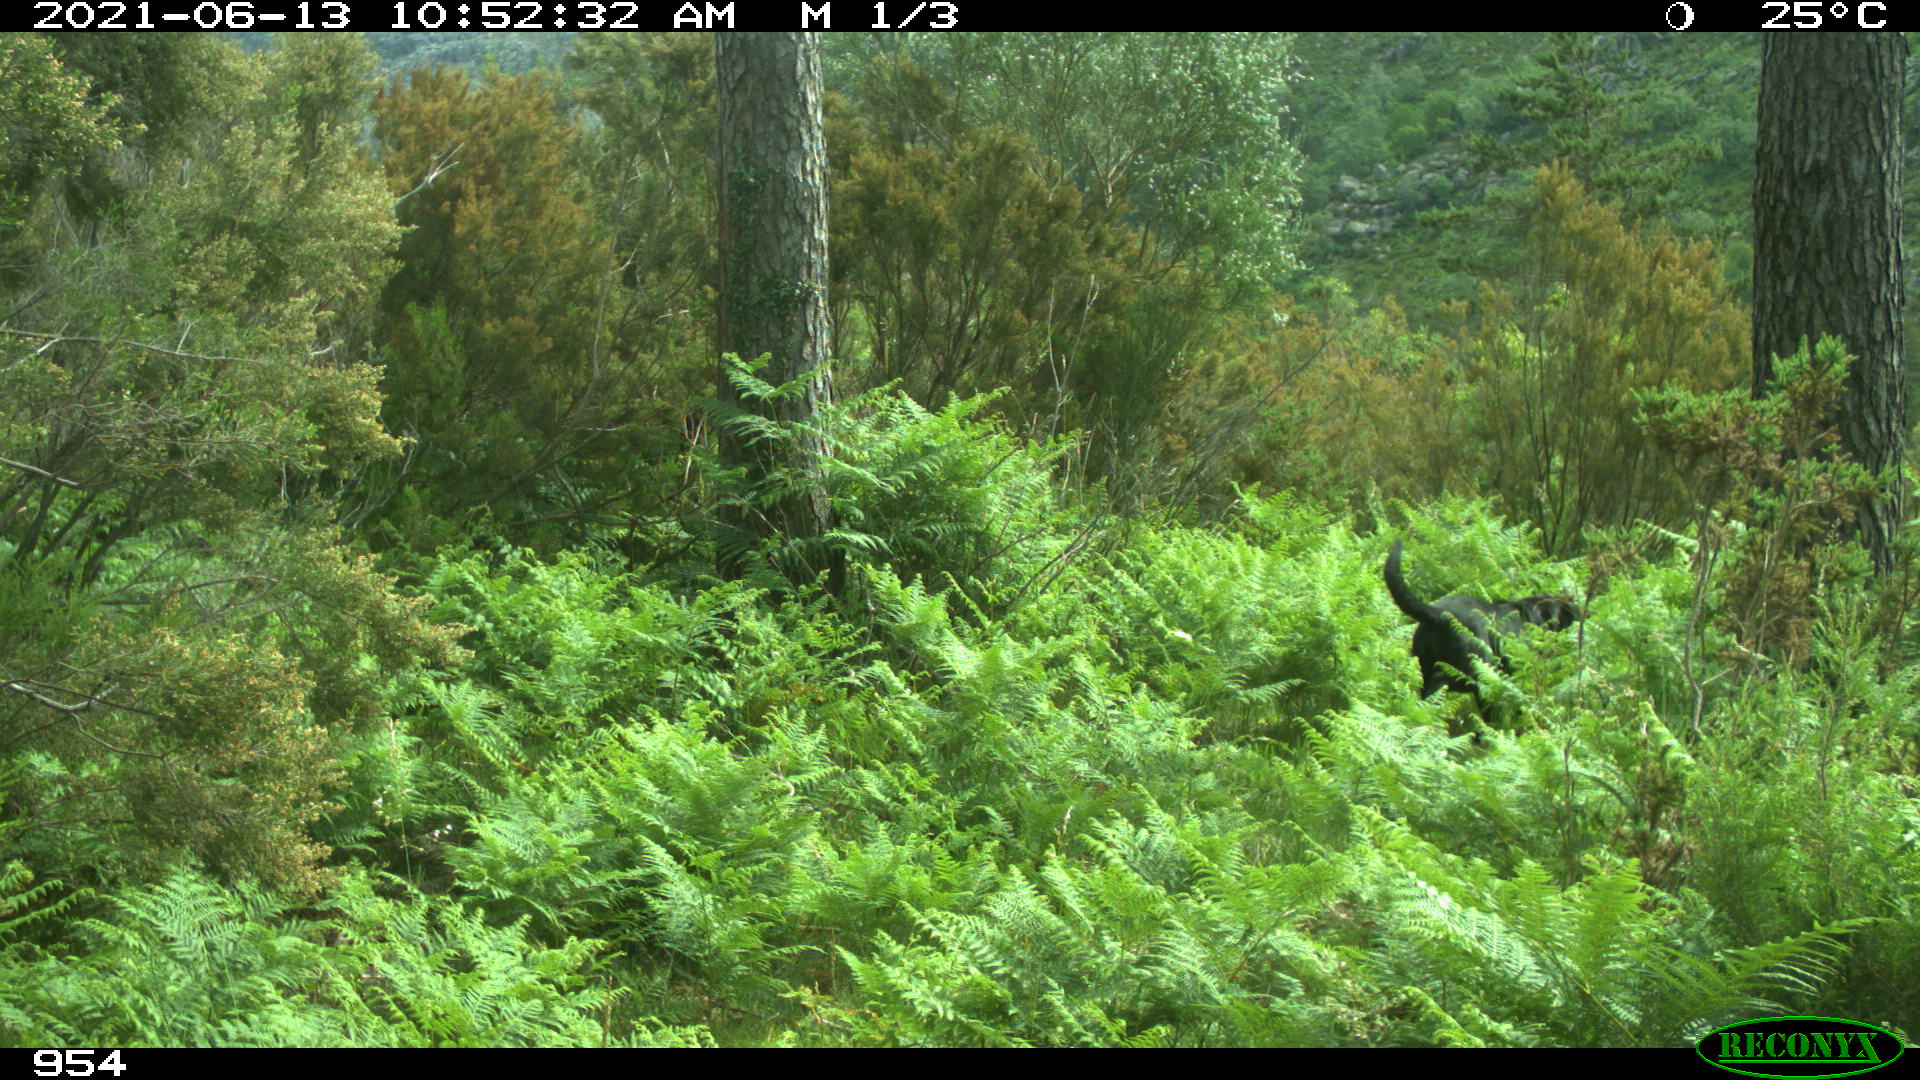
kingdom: Animalia
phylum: Chordata
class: Mammalia
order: Carnivora
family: Canidae
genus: Canis
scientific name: Canis lupus
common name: Gray wolf
